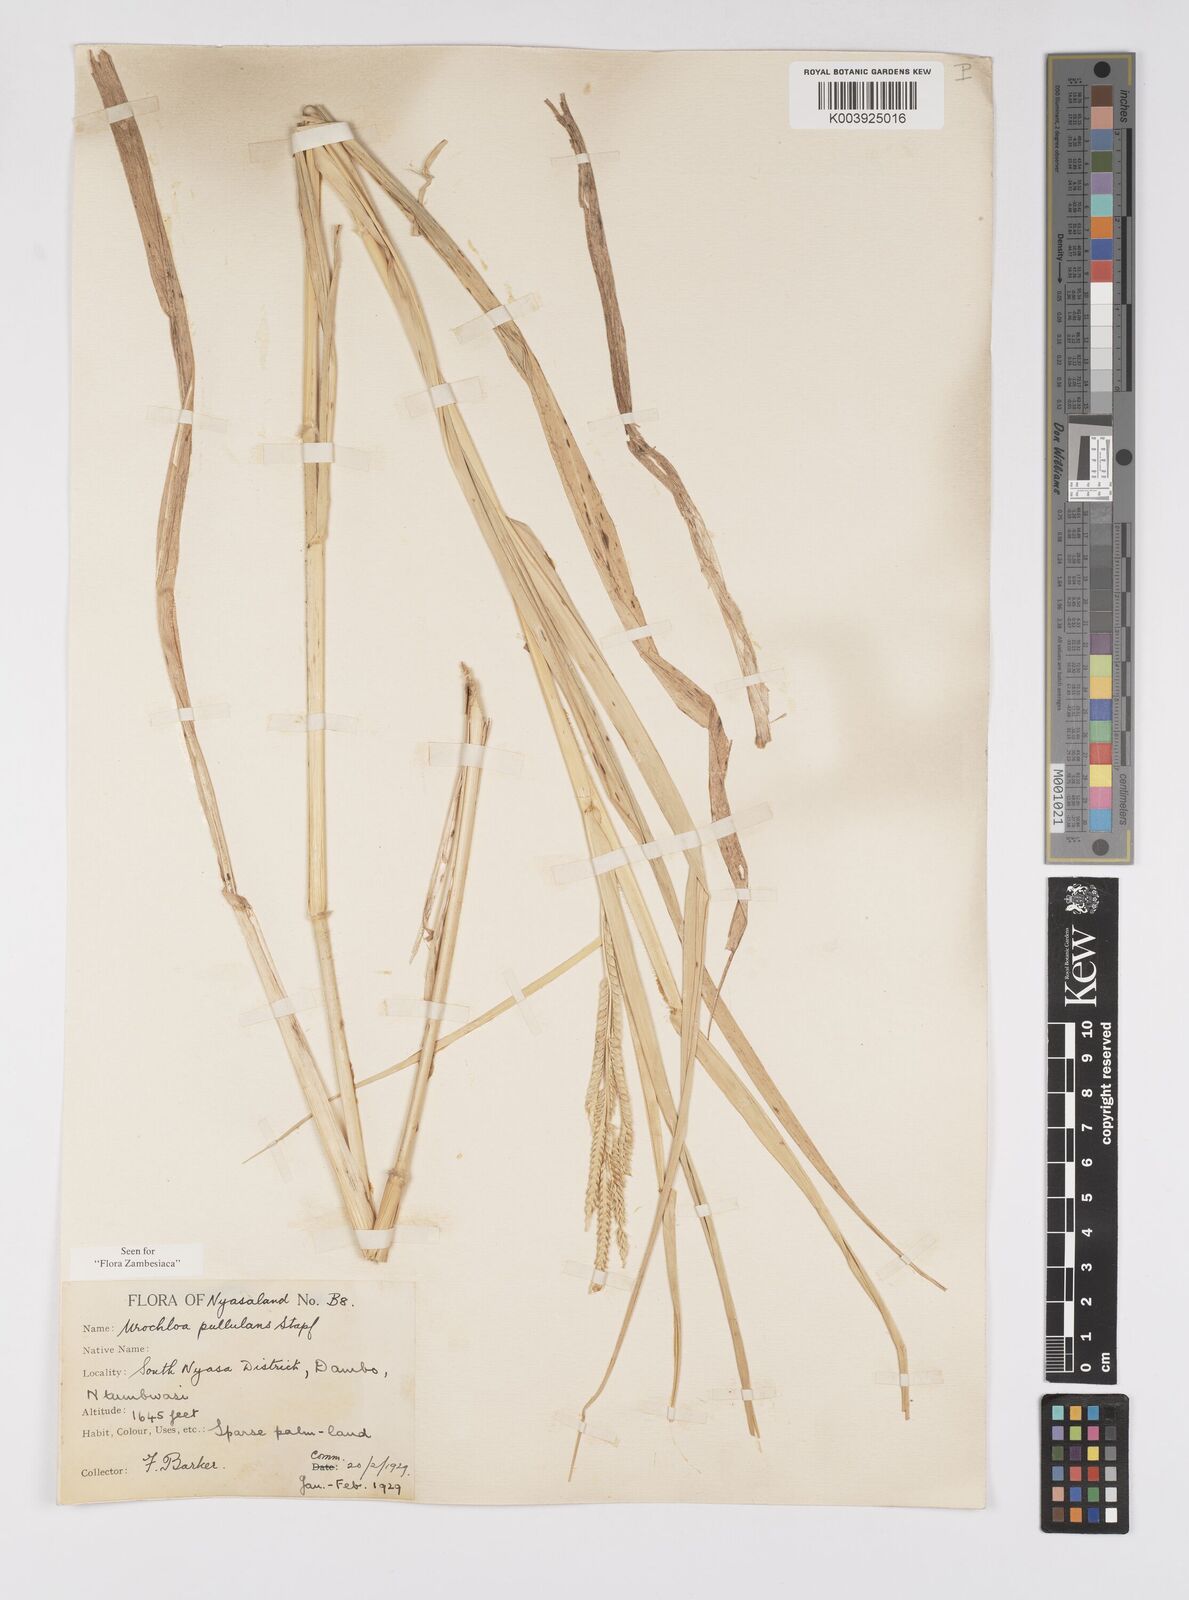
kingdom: Plantae
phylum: Tracheophyta
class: Liliopsida
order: Poales
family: Poaceae
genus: Urochloa
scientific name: Urochloa trichopus
